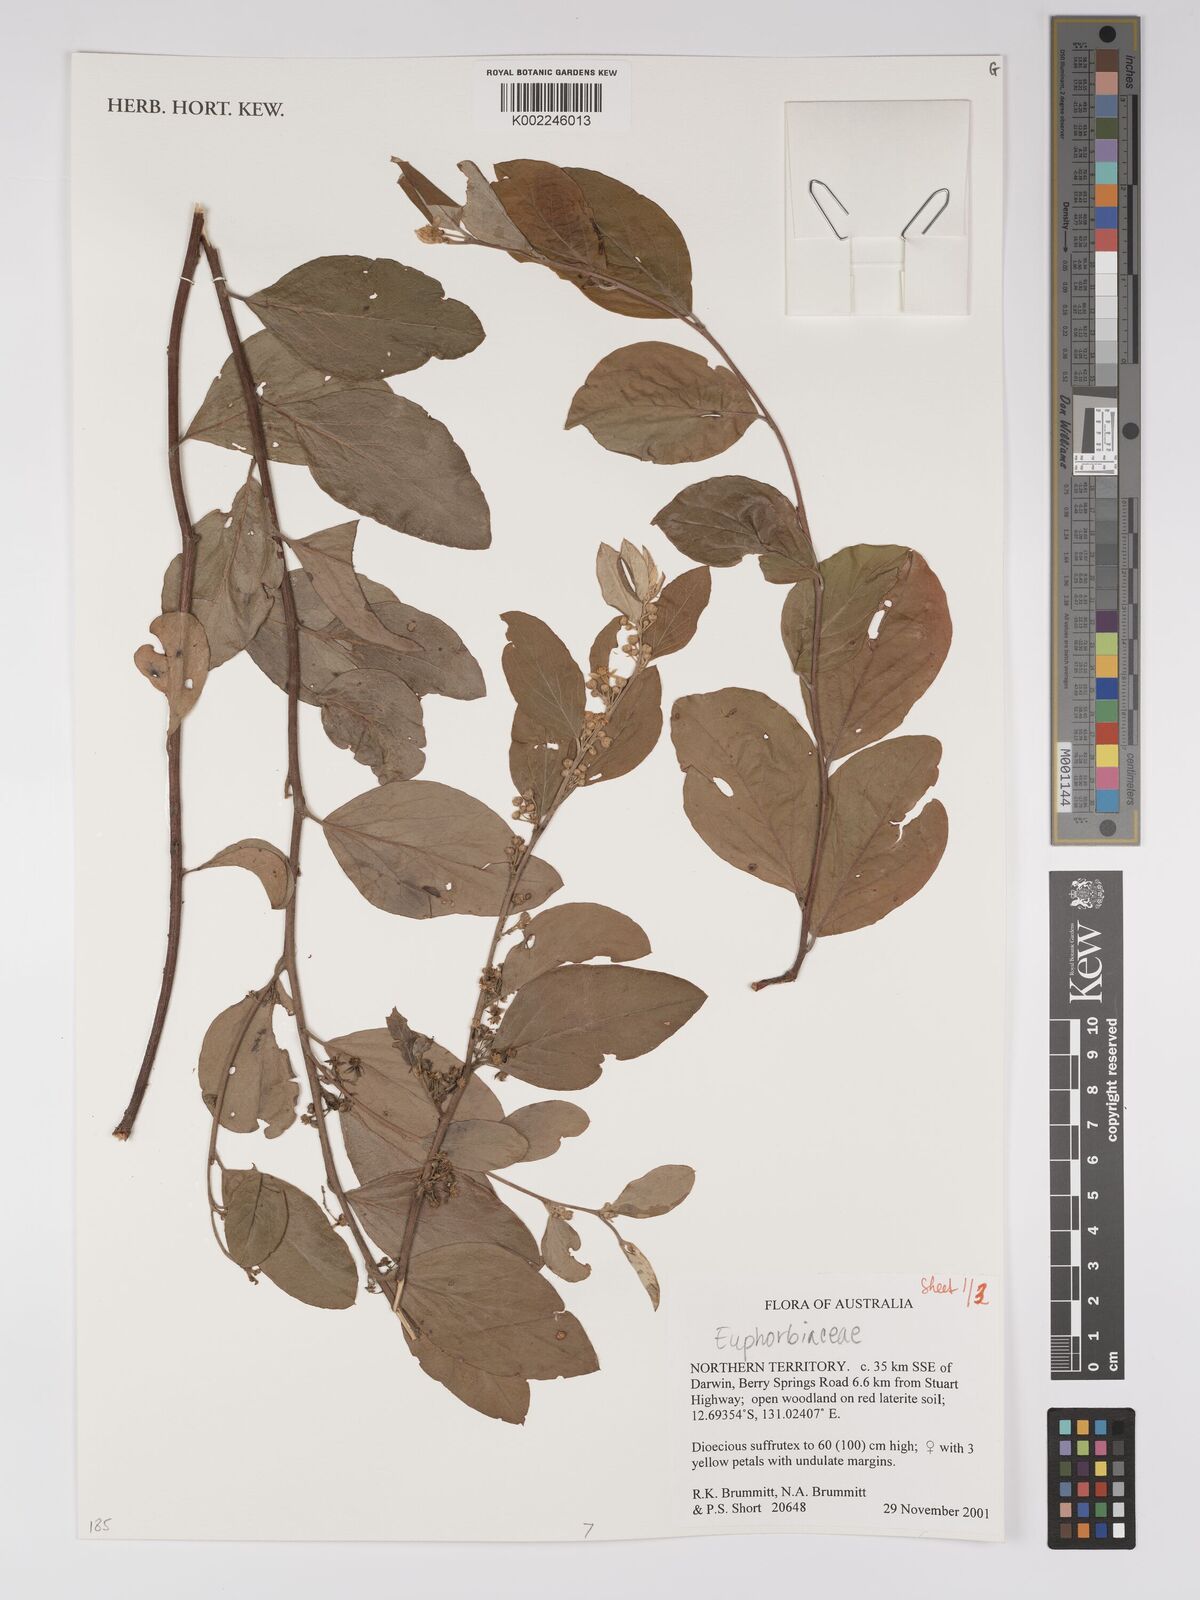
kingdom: Plantae
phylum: Tracheophyta
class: Magnoliopsida
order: Malpighiales
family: Euphorbiaceae
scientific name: Euphorbiaceae
